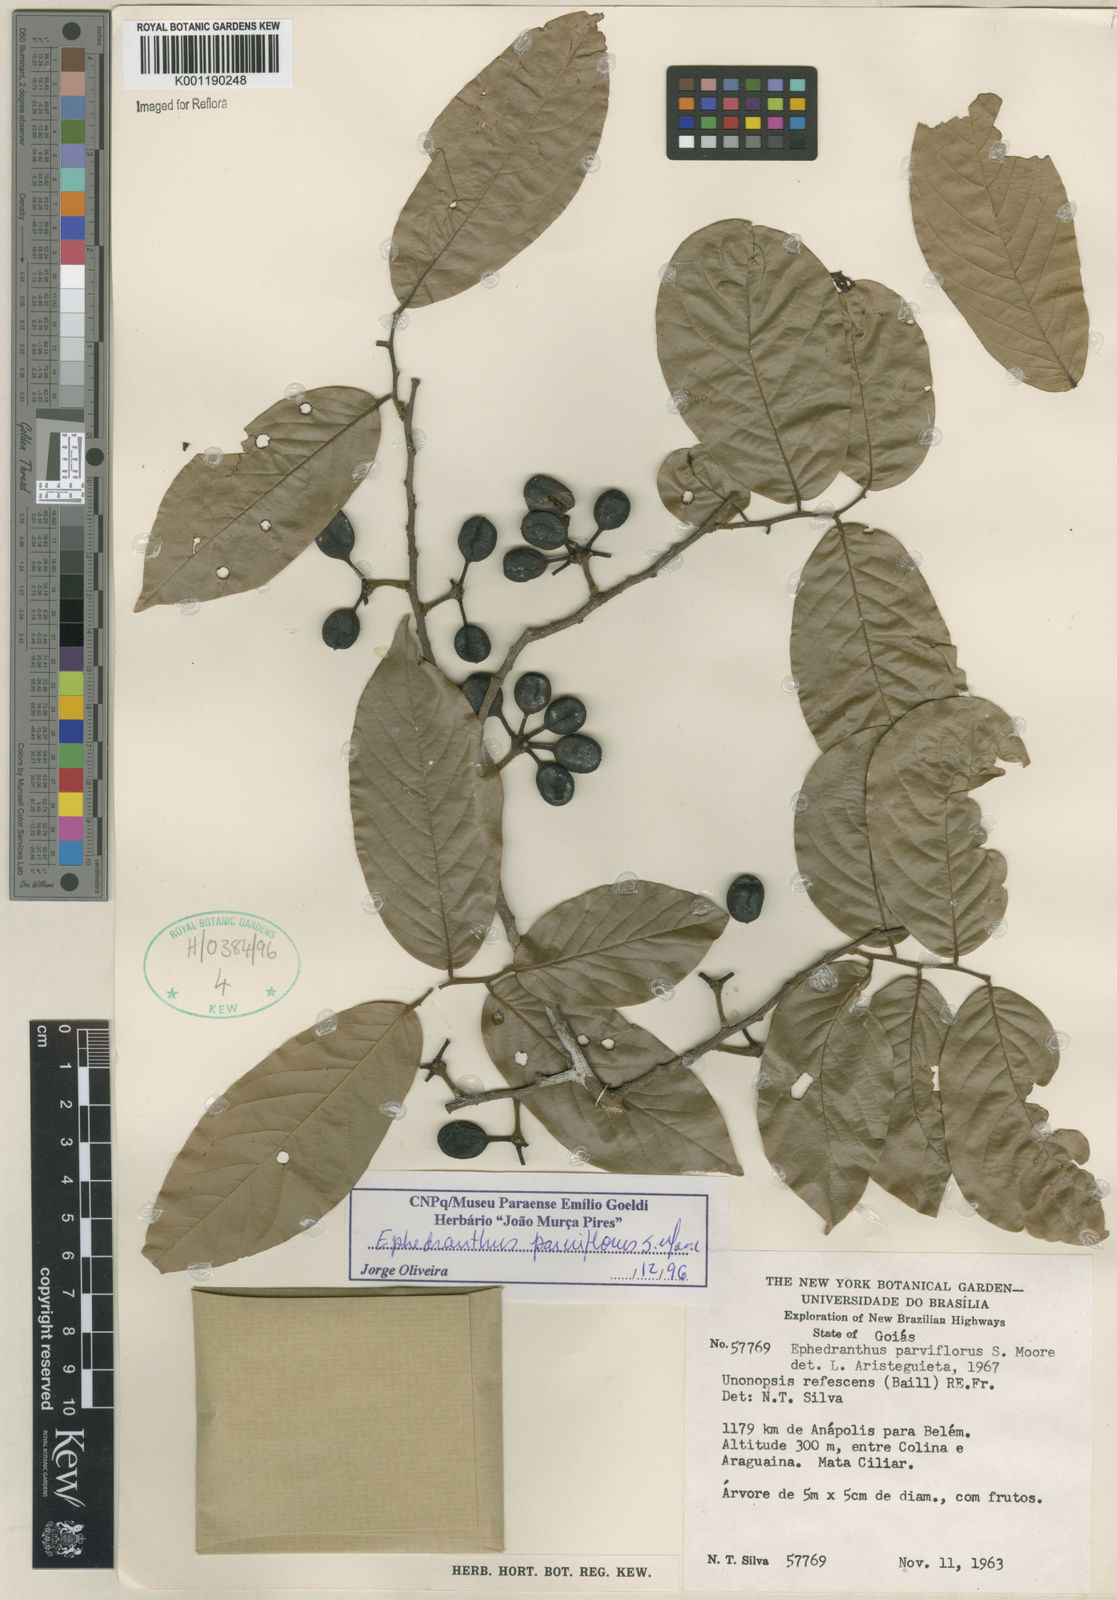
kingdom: Plantae
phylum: Tracheophyta
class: Magnoliopsida
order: Magnoliales
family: Annonaceae
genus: Ephedranthus
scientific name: Ephedranthus parviflorus
